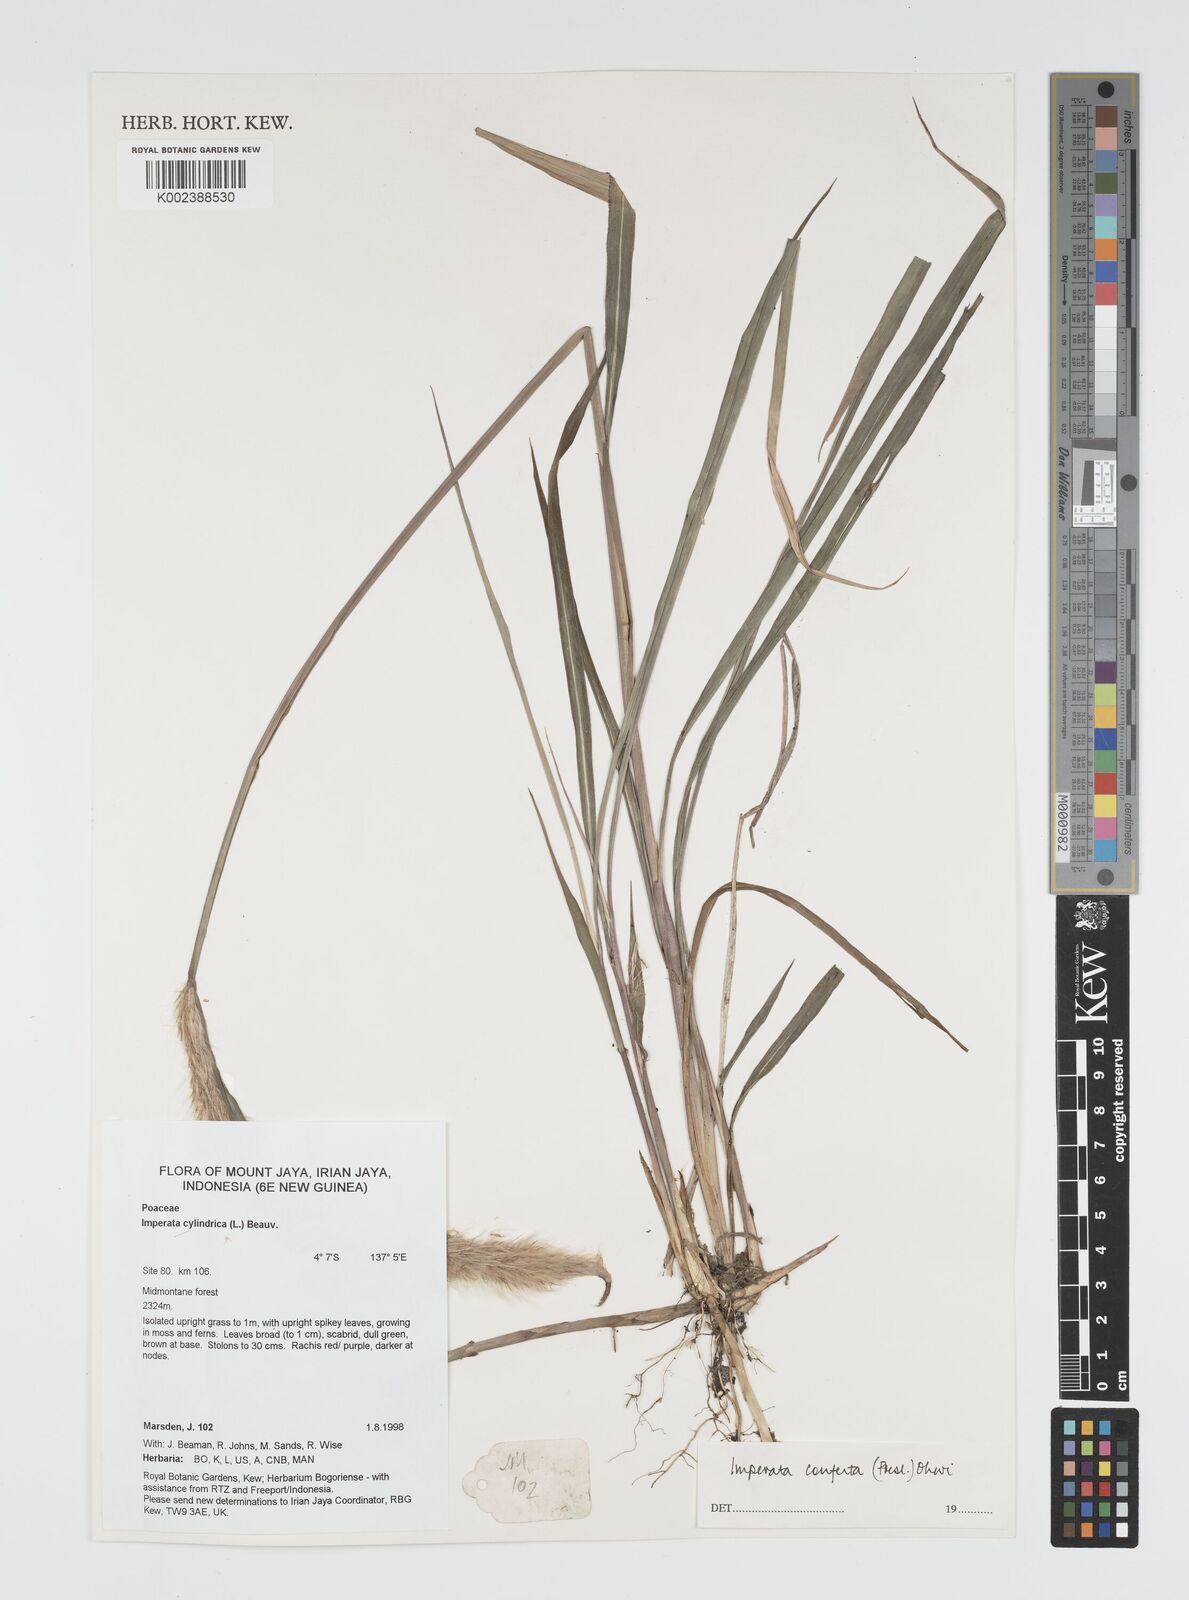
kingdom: Plantae
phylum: Tracheophyta
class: Liliopsida
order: Poales
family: Poaceae
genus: Imperata
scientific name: Imperata conferta
